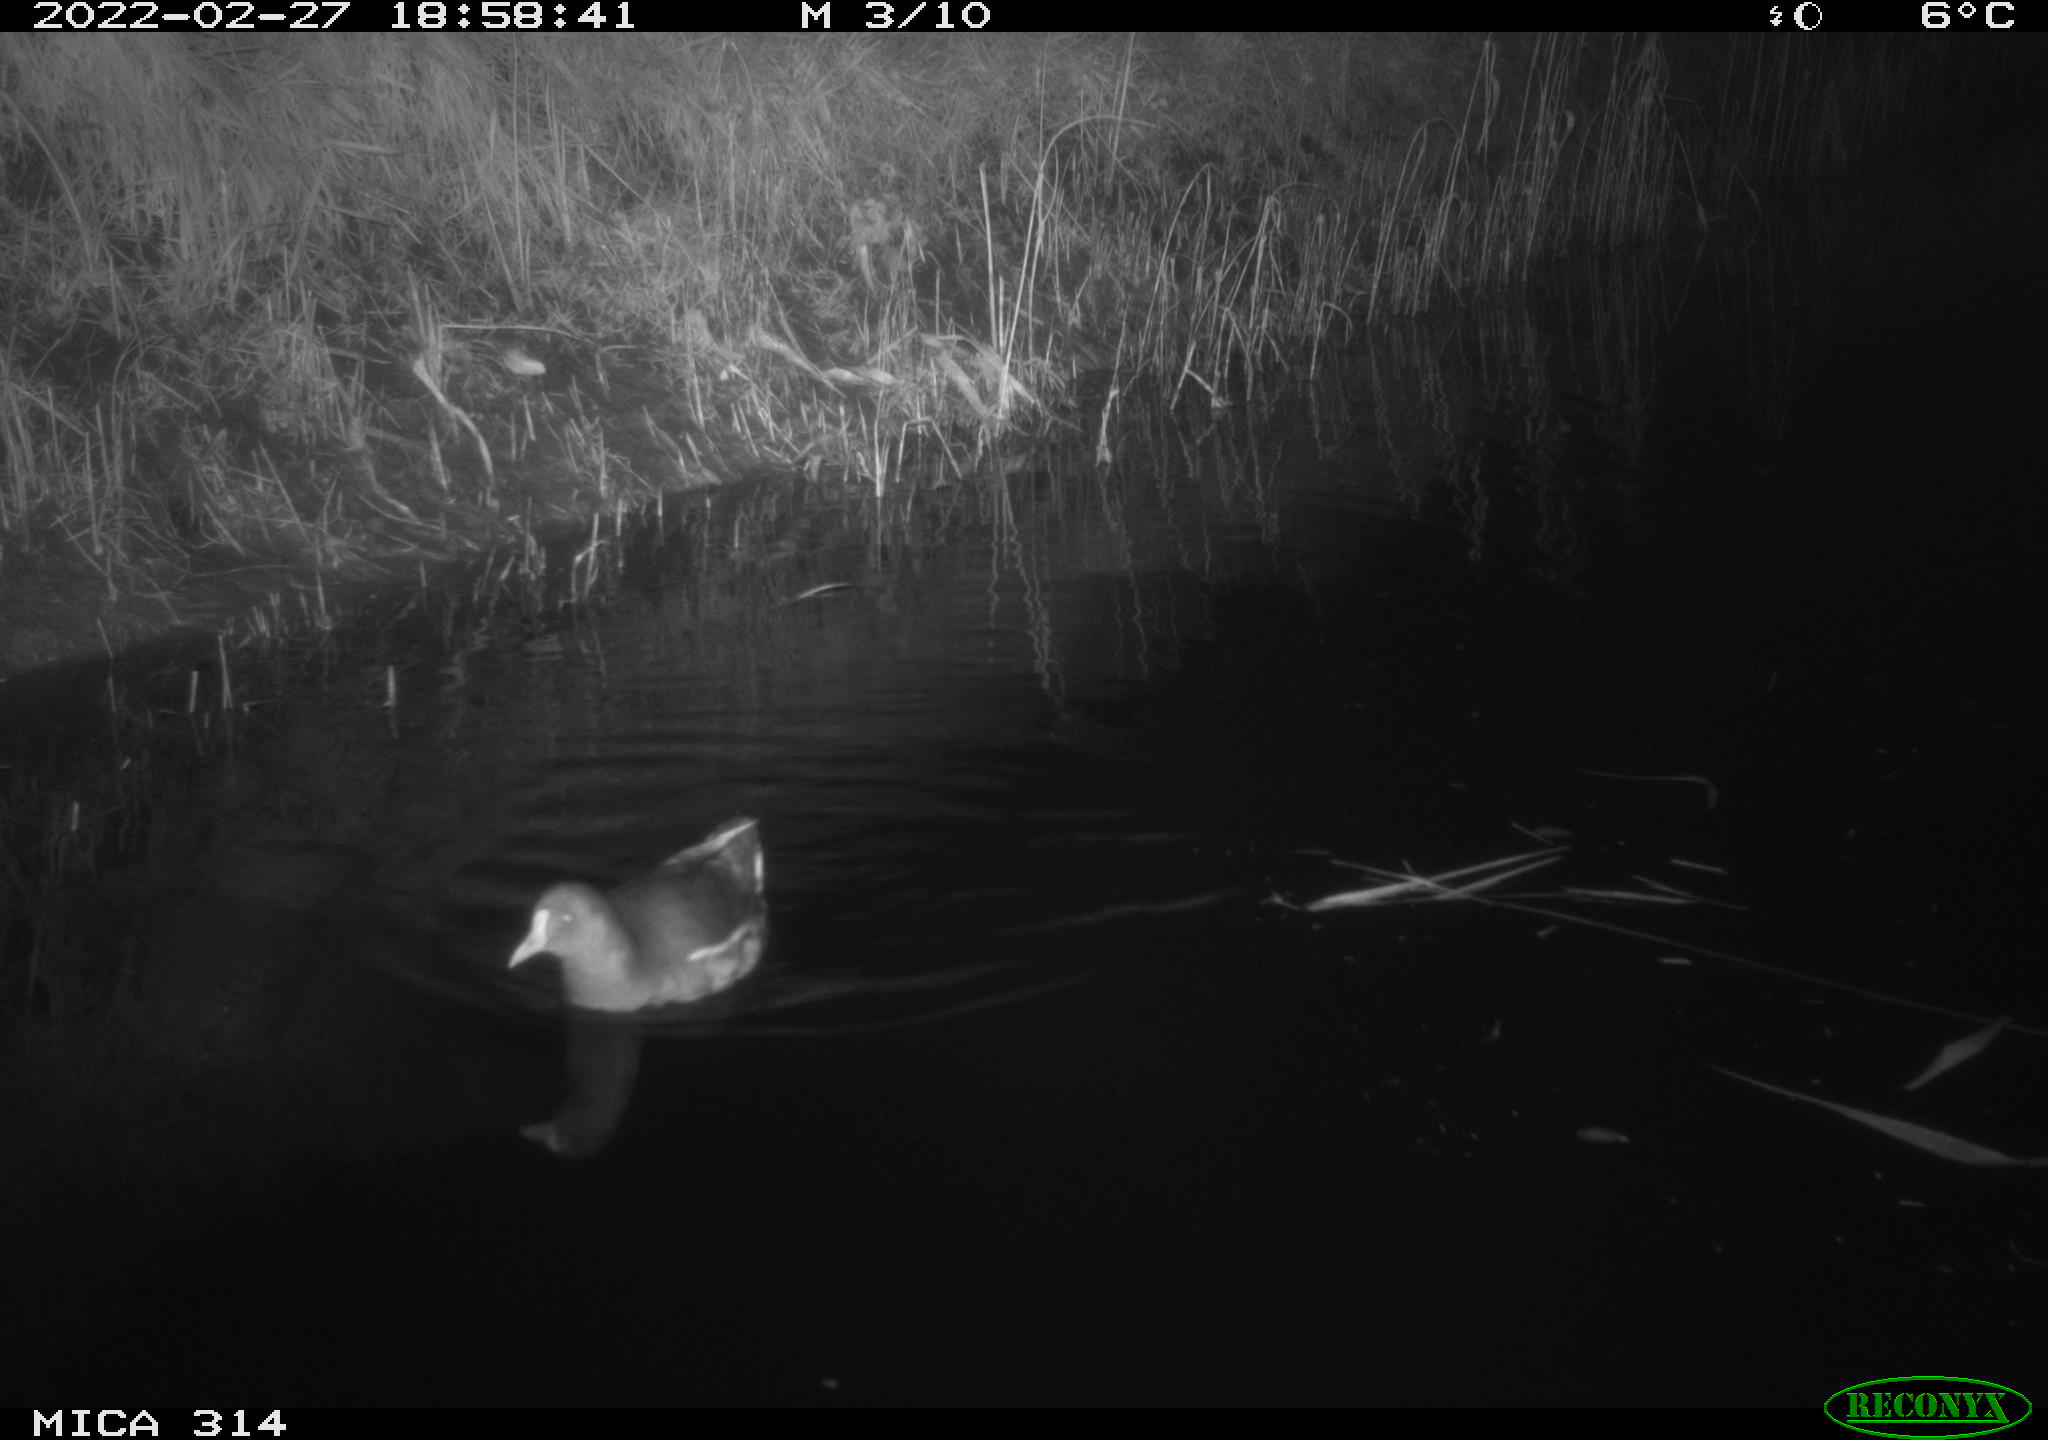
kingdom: Animalia
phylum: Chordata
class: Aves
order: Gruiformes
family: Rallidae
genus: Gallinula
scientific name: Gallinula chloropus
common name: Common moorhen
